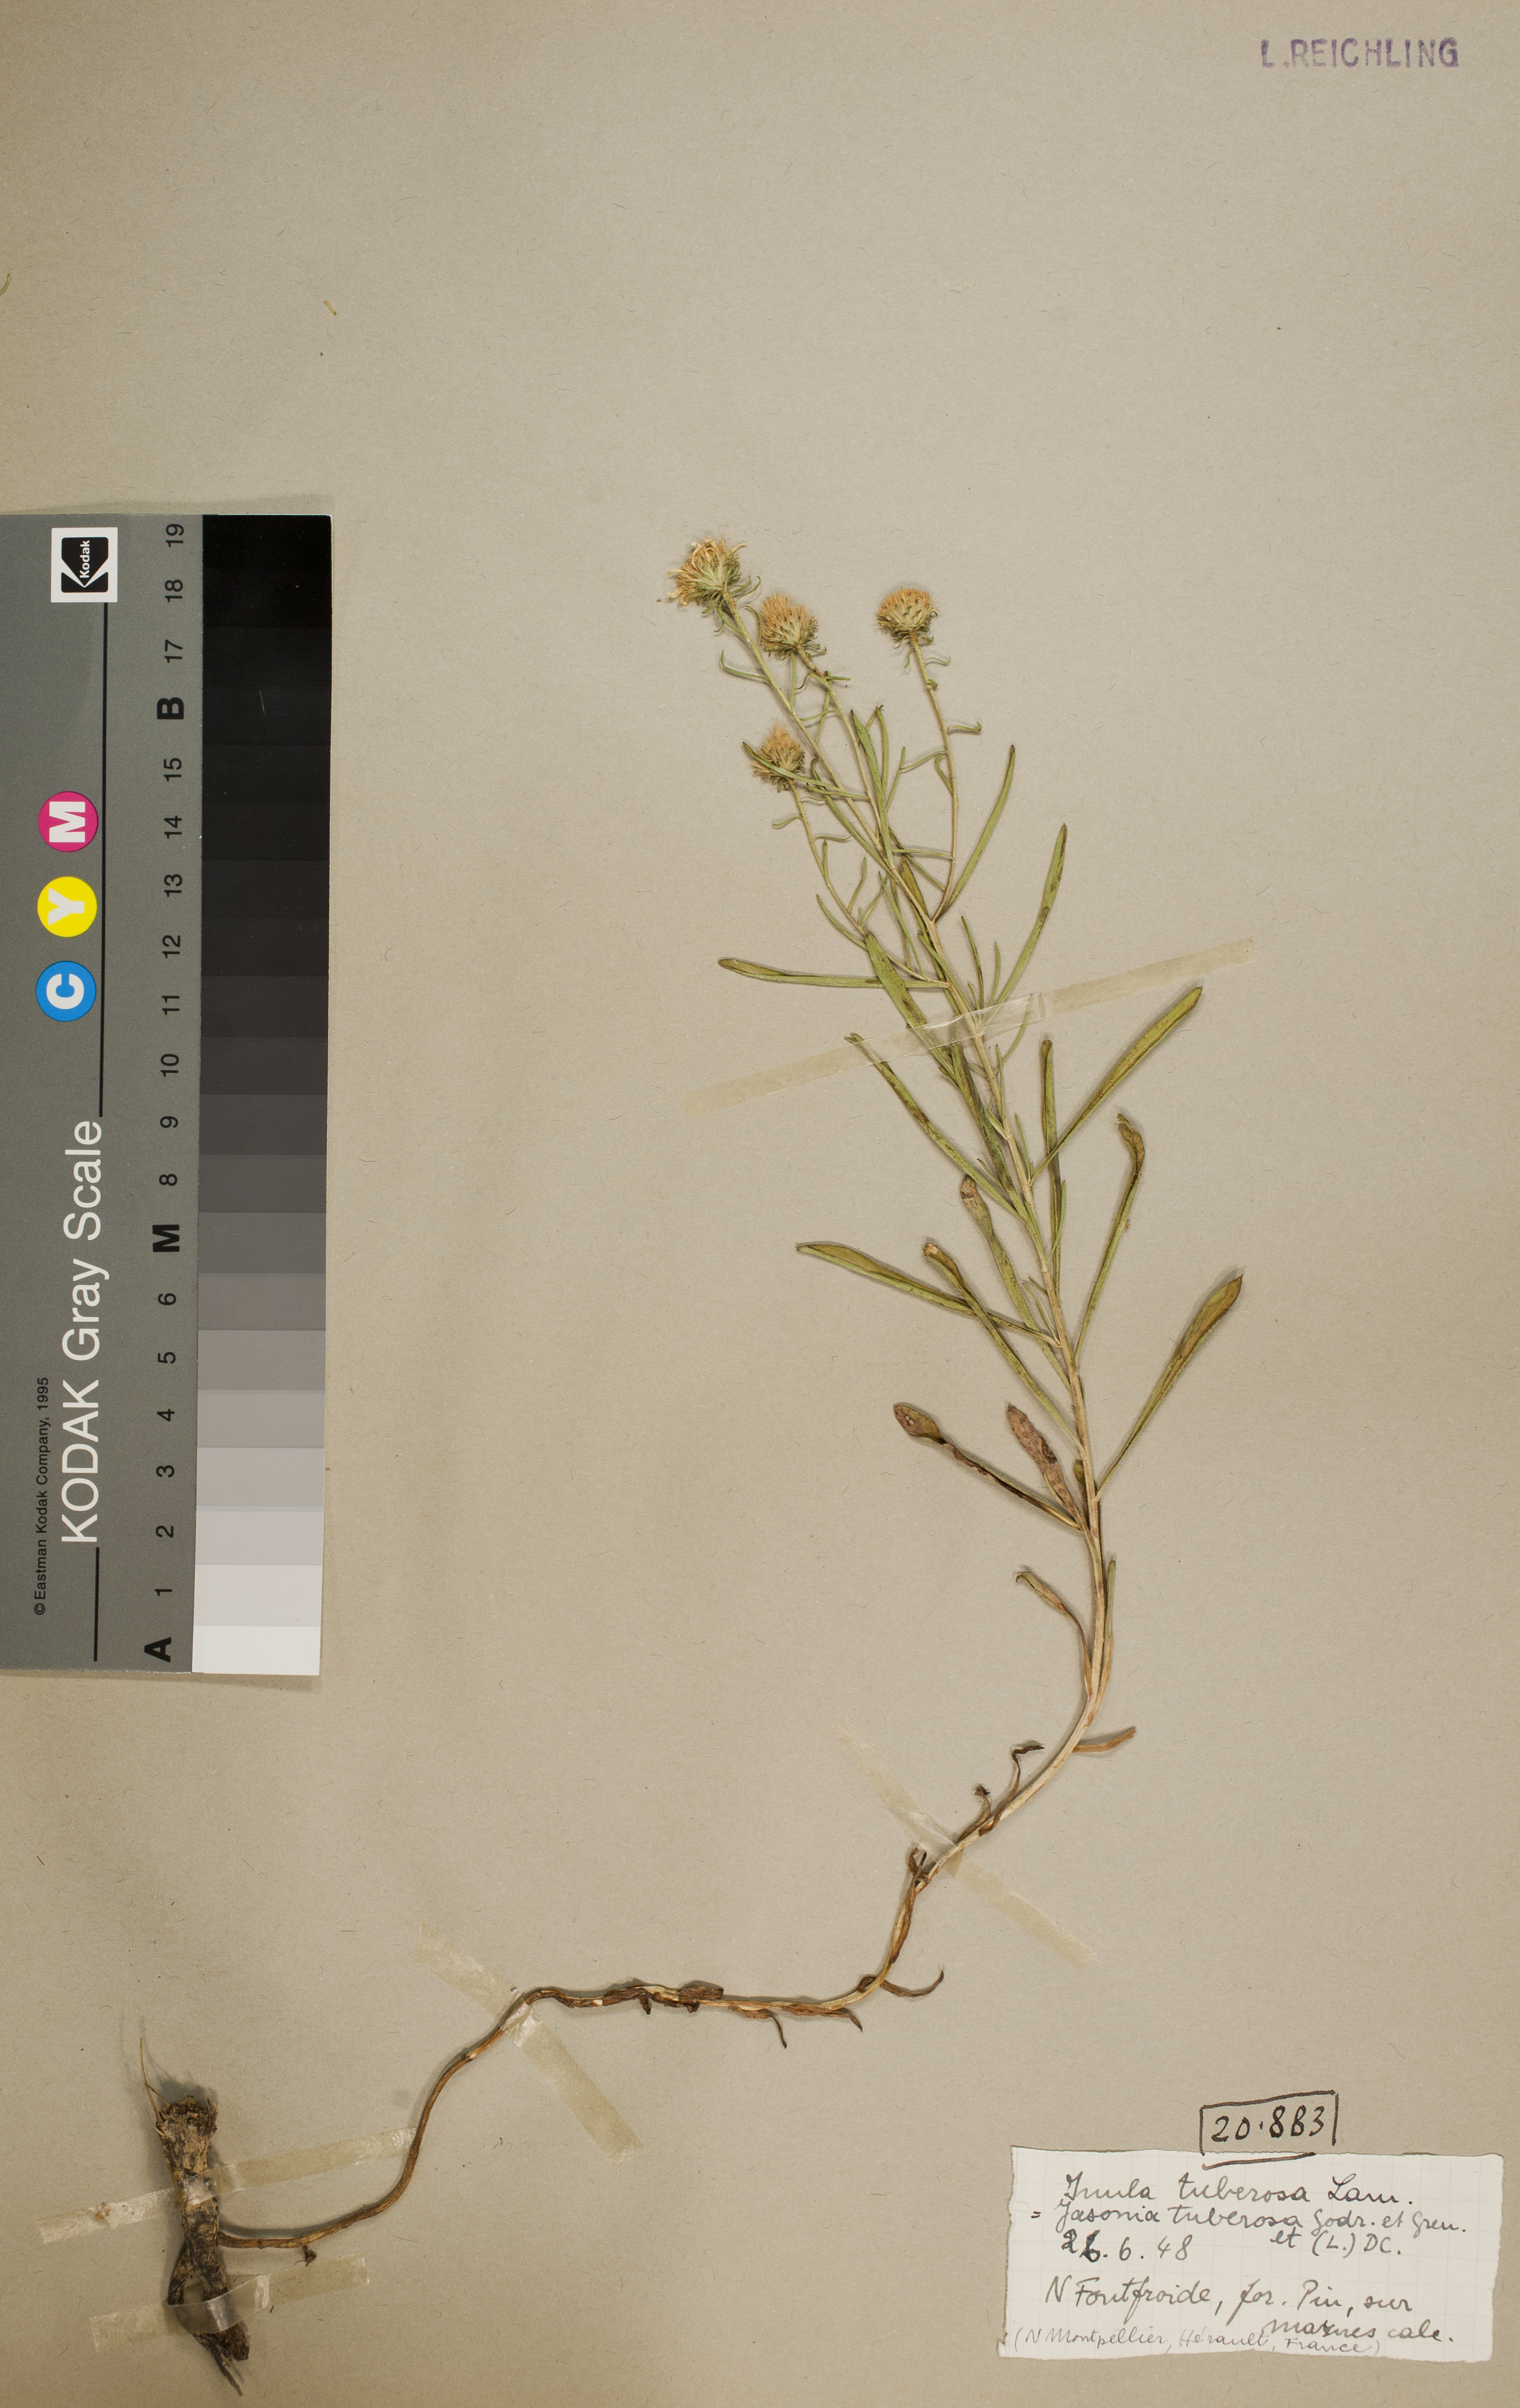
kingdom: Plantae
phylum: Tracheophyta
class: Magnoliopsida
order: Asterales
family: Asteraceae
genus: Jasonia
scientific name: Jasonia tuberosa
